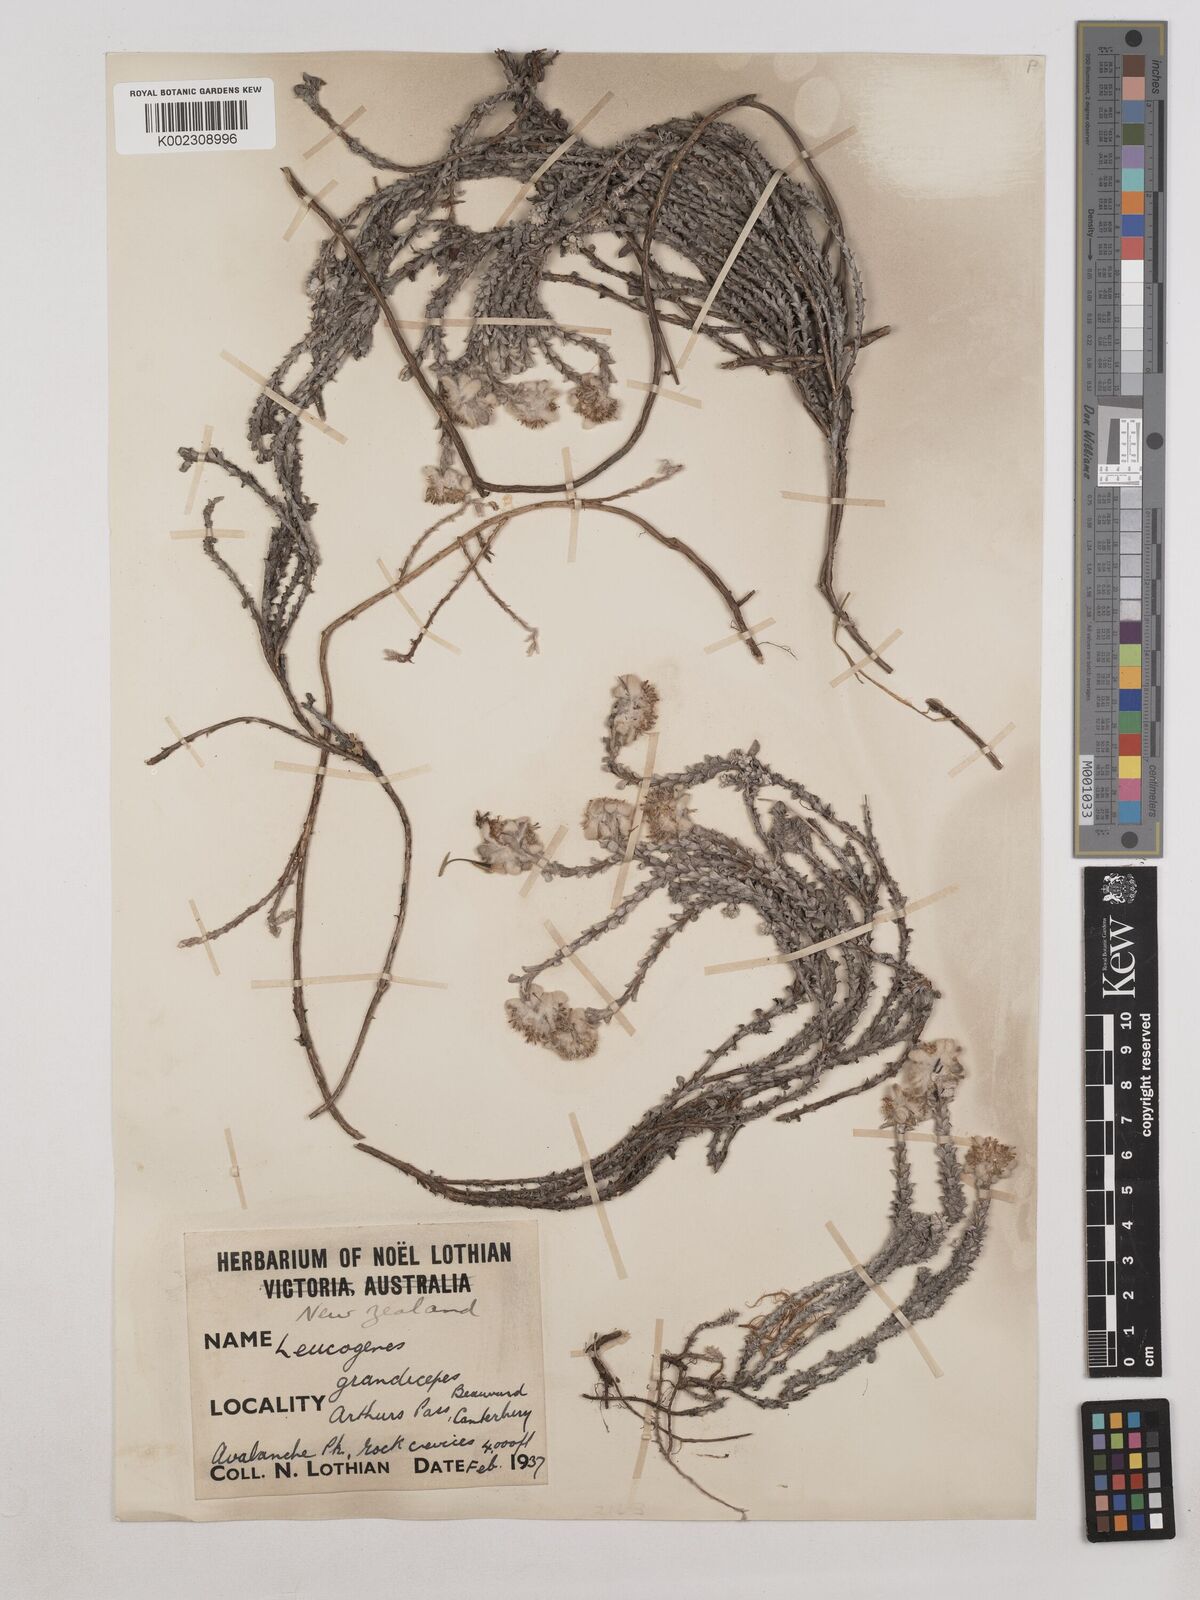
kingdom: Plantae
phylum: Tracheophyta
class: Magnoliopsida
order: Asterales
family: Asteraceae
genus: Leucogenes
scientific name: Leucogenes grandiceps
